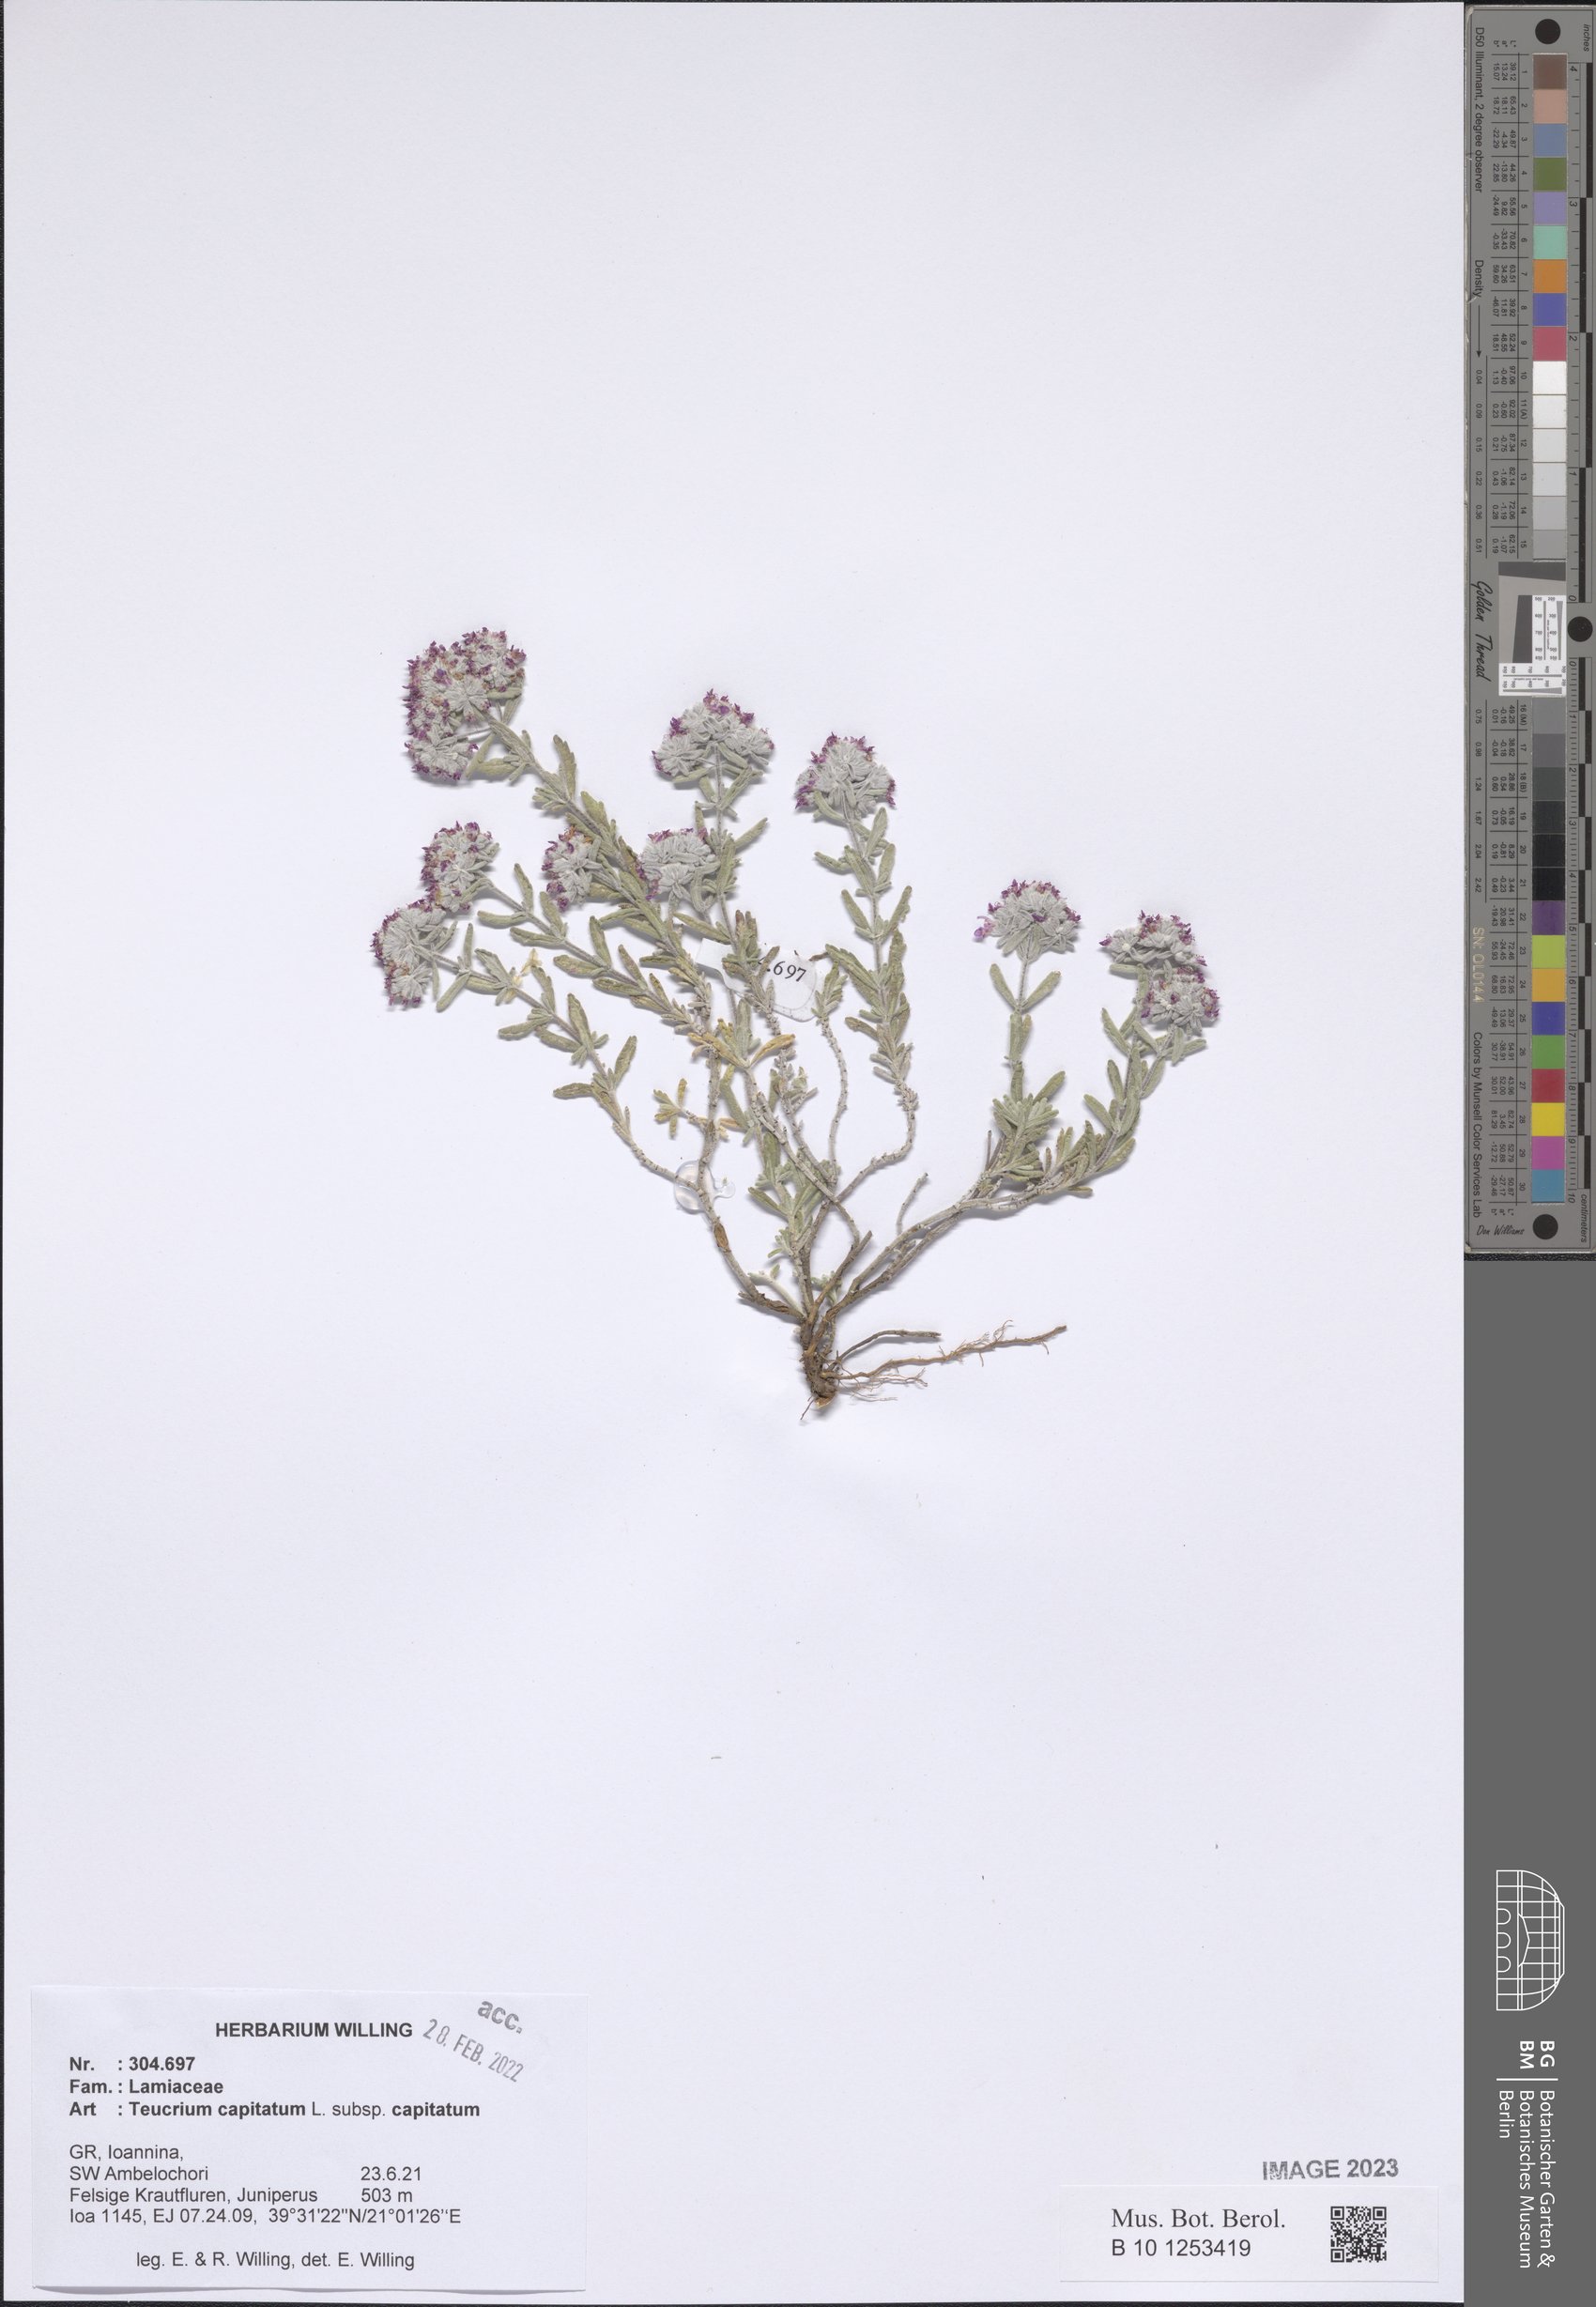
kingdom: Plantae
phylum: Tracheophyta
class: Magnoliopsida
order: Lamiales
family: Lamiaceae
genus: Teucrium
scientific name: Teucrium capitatum
